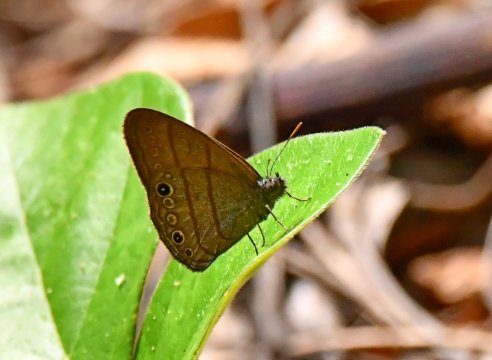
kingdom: Animalia
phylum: Arthropoda
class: Insecta
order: Lepidoptera
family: Nymphalidae
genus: Hermeuptychia
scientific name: Hermeuptychia hermes
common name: Hermes Satyr
